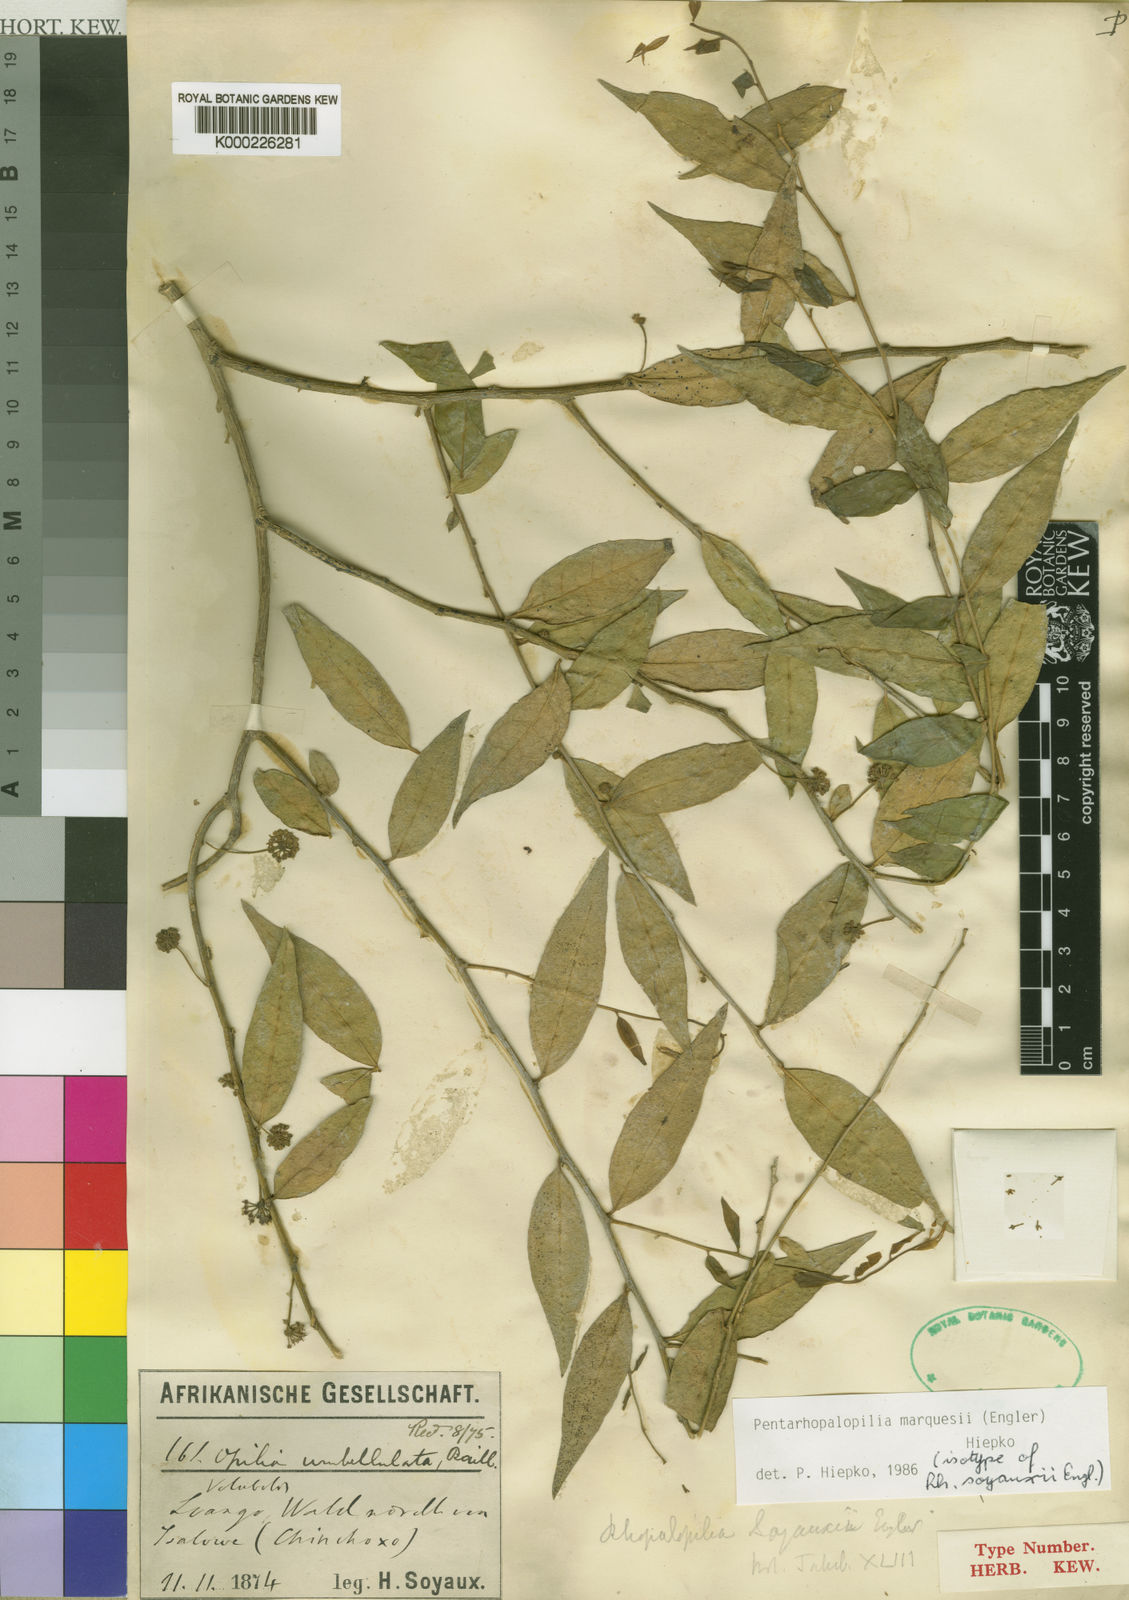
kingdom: Plantae
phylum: Tracheophyta
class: Magnoliopsida
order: Santalales
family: Opiliaceae
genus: Pentarhopalopilia
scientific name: Pentarhopalopilia marquesii
